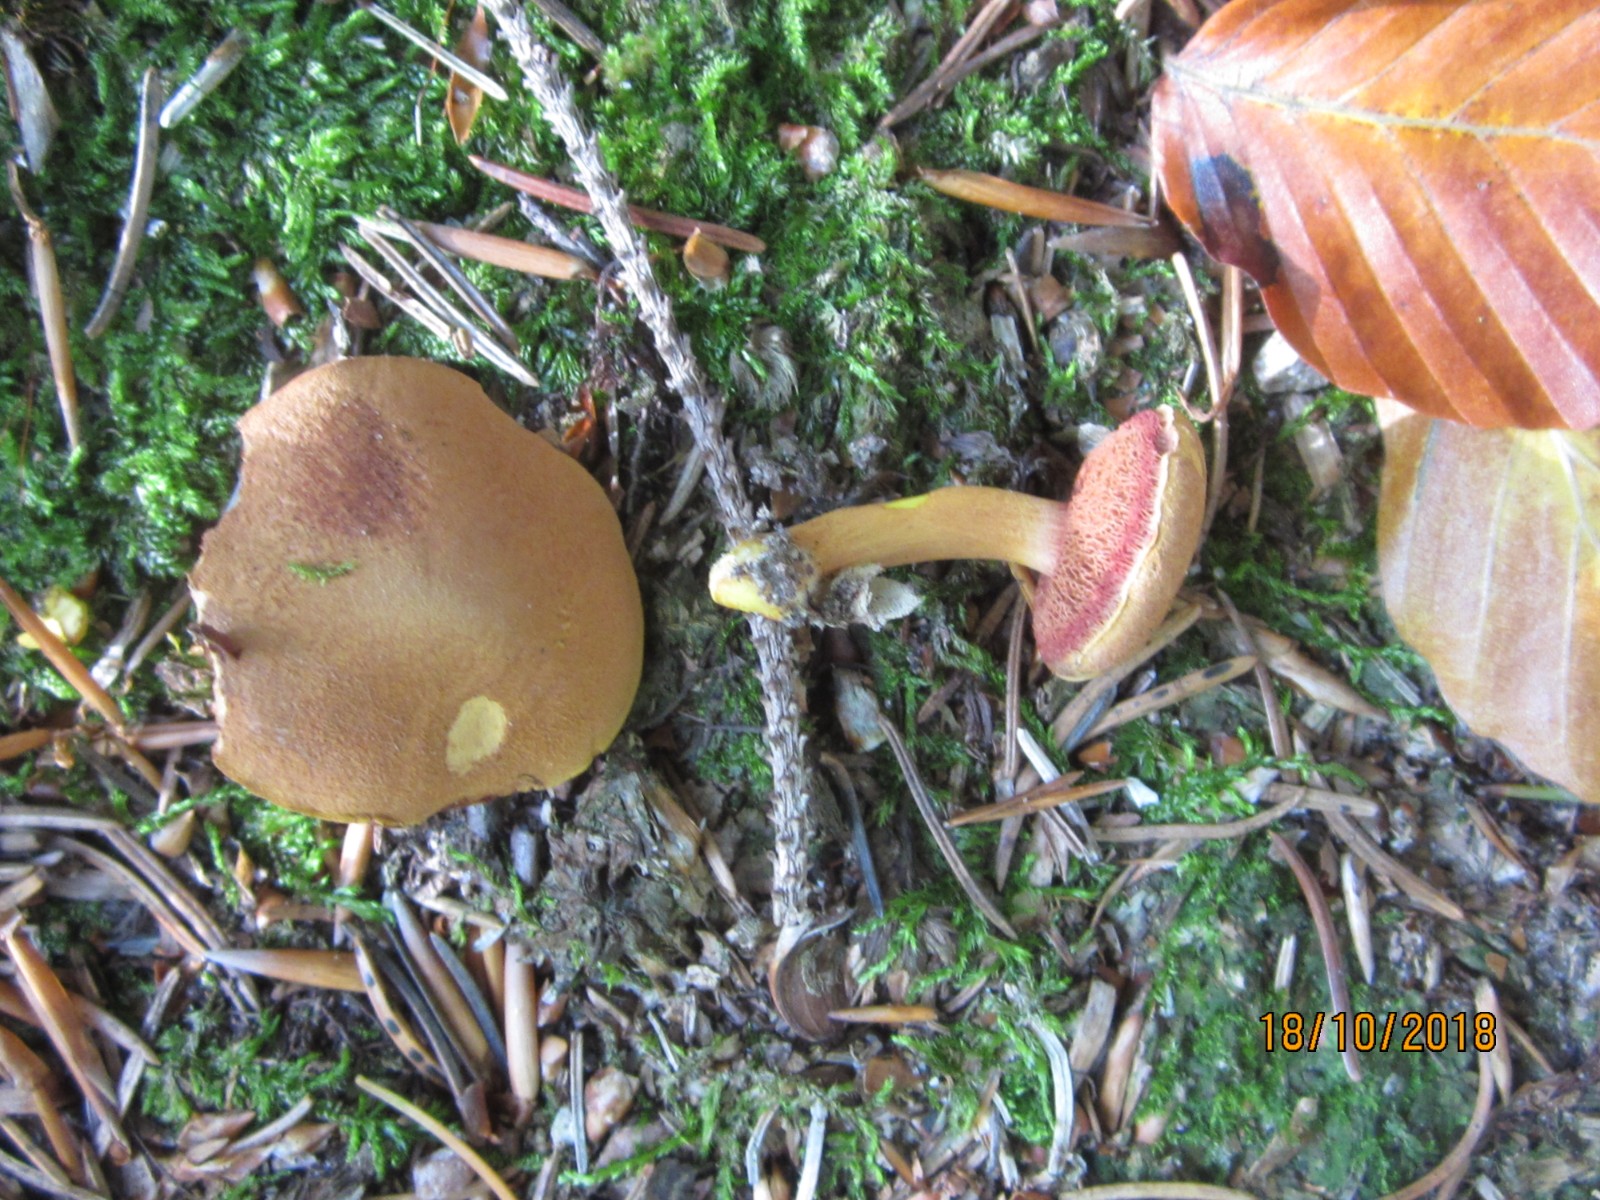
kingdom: Fungi
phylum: Basidiomycota
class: Agaricomycetes
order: Boletales
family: Boletaceae
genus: Chalciporus
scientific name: Chalciporus piperatus
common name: peberrørhat
